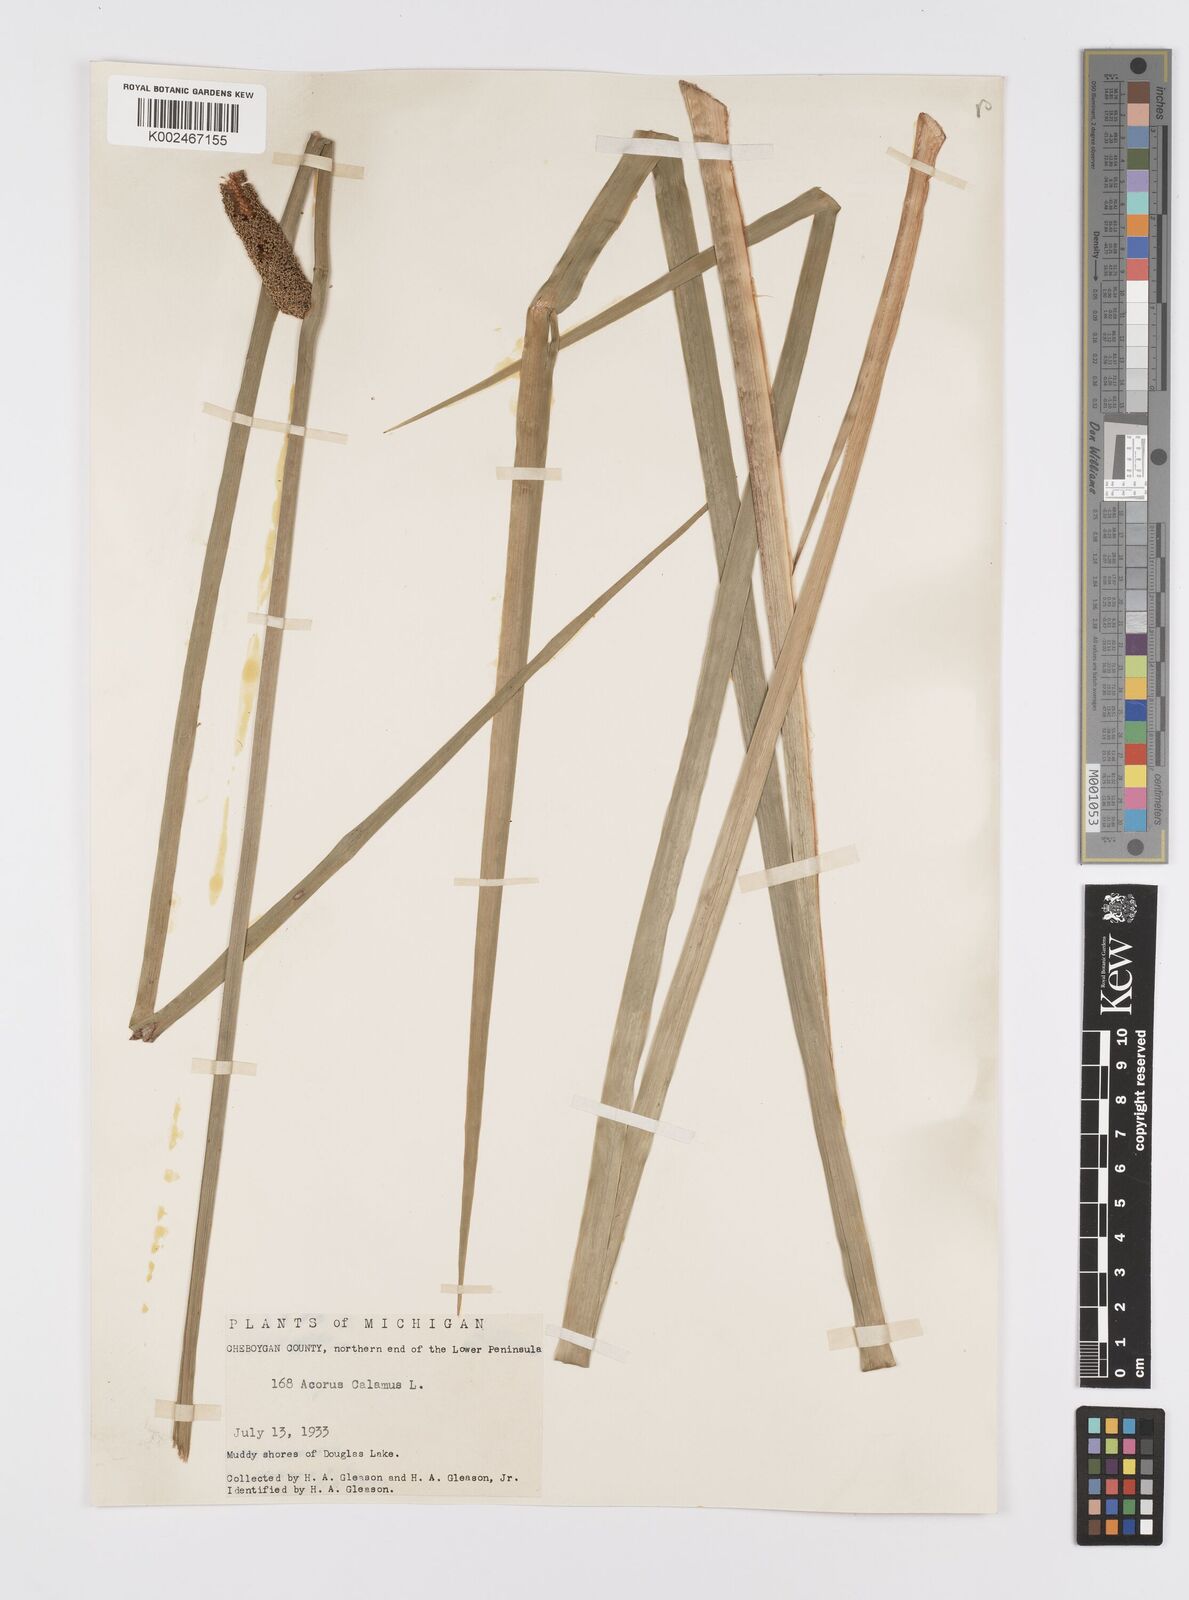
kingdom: Plantae
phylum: Tracheophyta
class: Liliopsida
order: Acorales
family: Acoraceae
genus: Acorus
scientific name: Acorus calamus
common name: Sweet-flag
